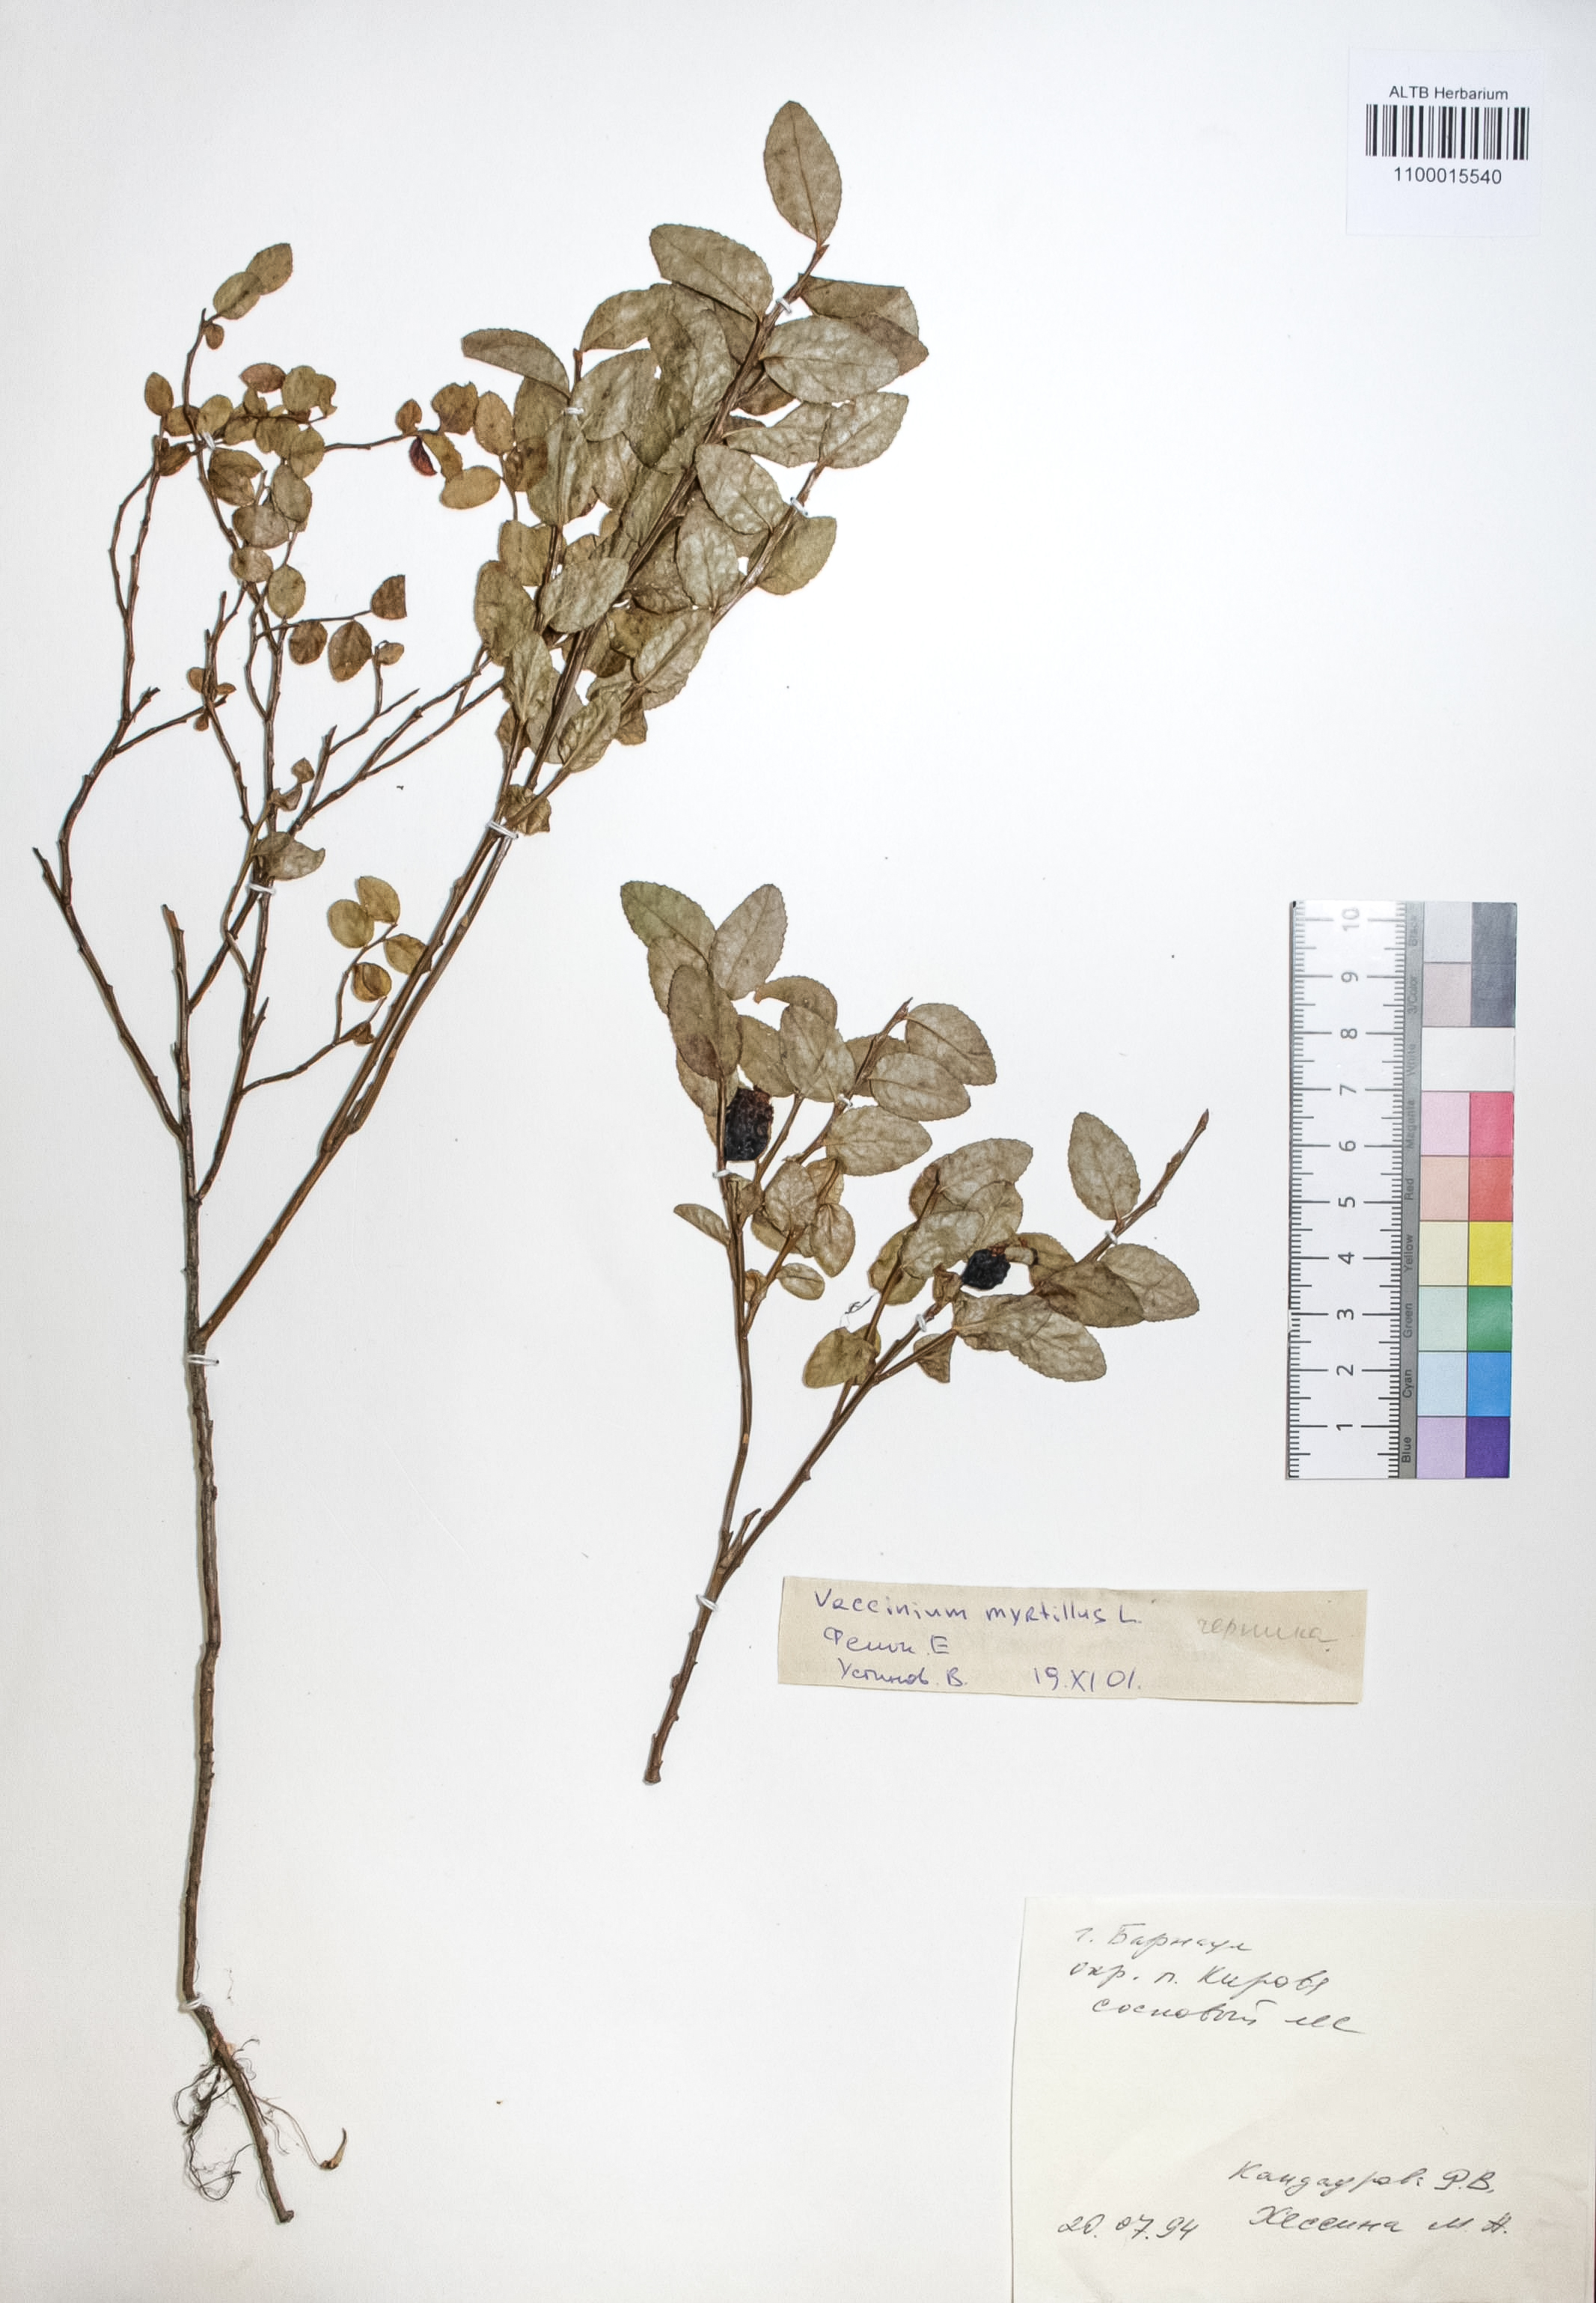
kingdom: Plantae
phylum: Tracheophyta
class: Magnoliopsida
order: Ericales
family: Ericaceae
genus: Vaccinium
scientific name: Vaccinium myrtillus
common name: Bilberry
